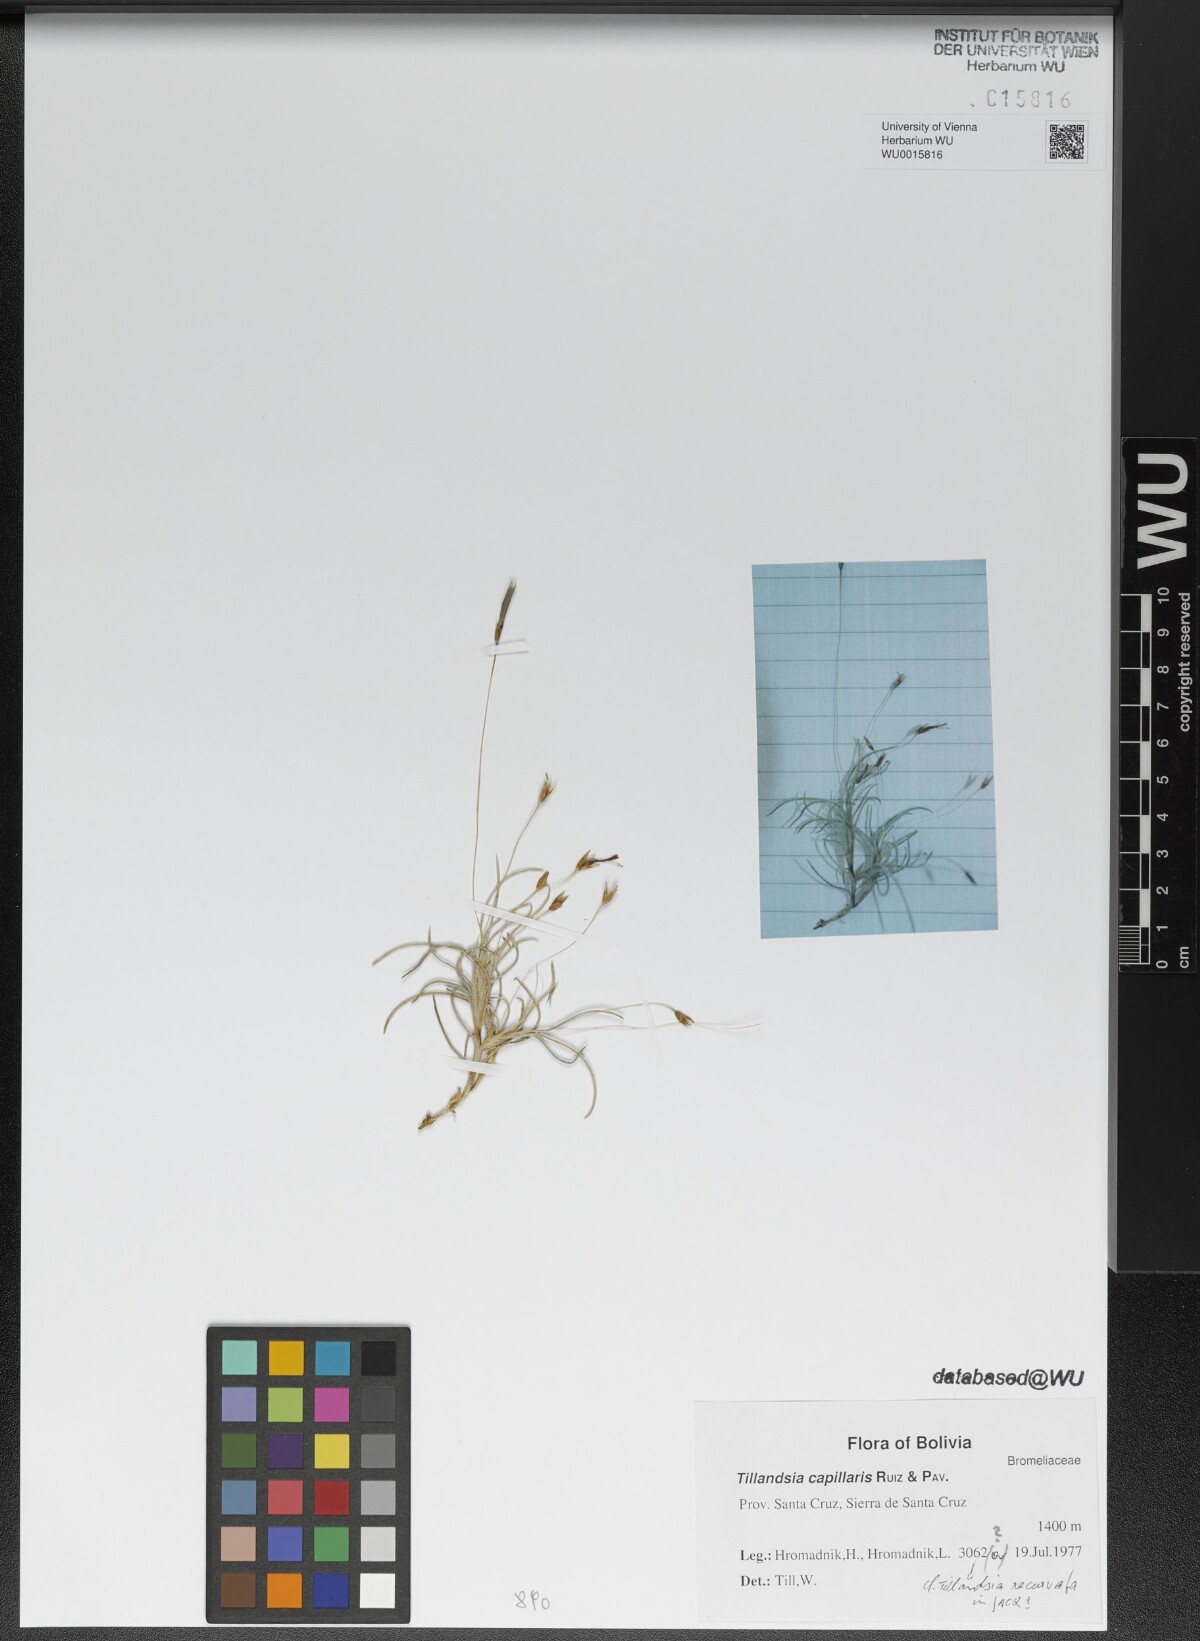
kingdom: Plantae
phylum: Tracheophyta
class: Liliopsida
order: Poales
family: Bromeliaceae
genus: Tillandsia
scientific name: Tillandsia capillaris
